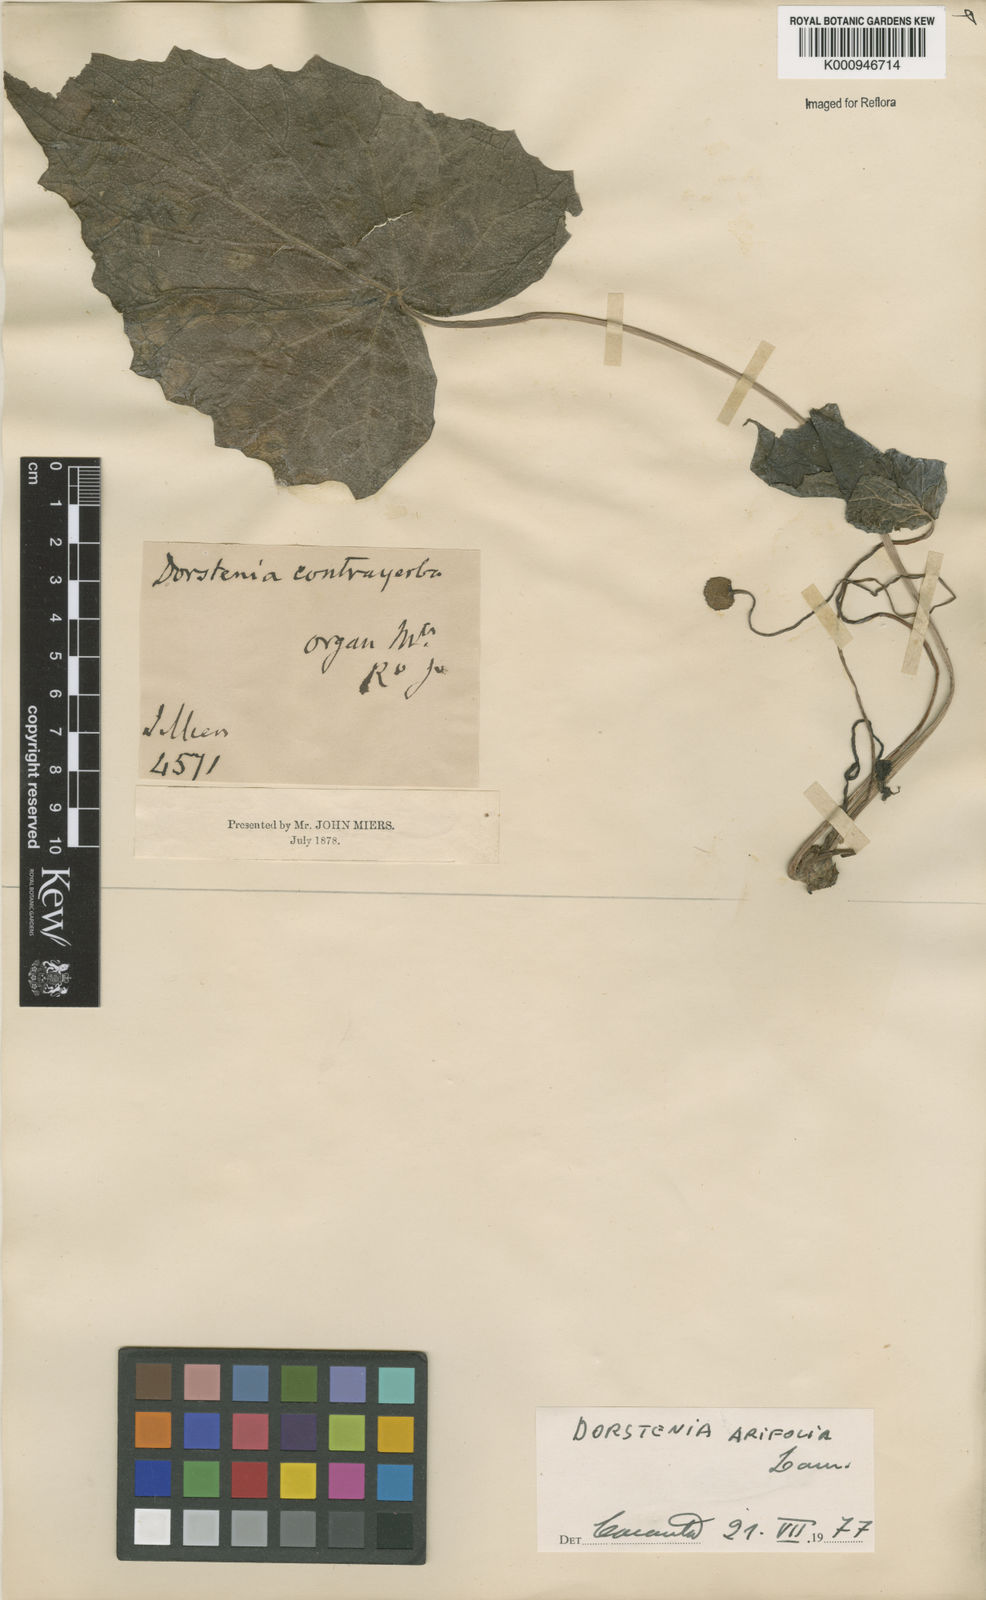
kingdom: Plantae
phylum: Tracheophyta
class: Magnoliopsida
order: Rosales
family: Moraceae
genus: Dorstenia
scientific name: Dorstenia arifolia
